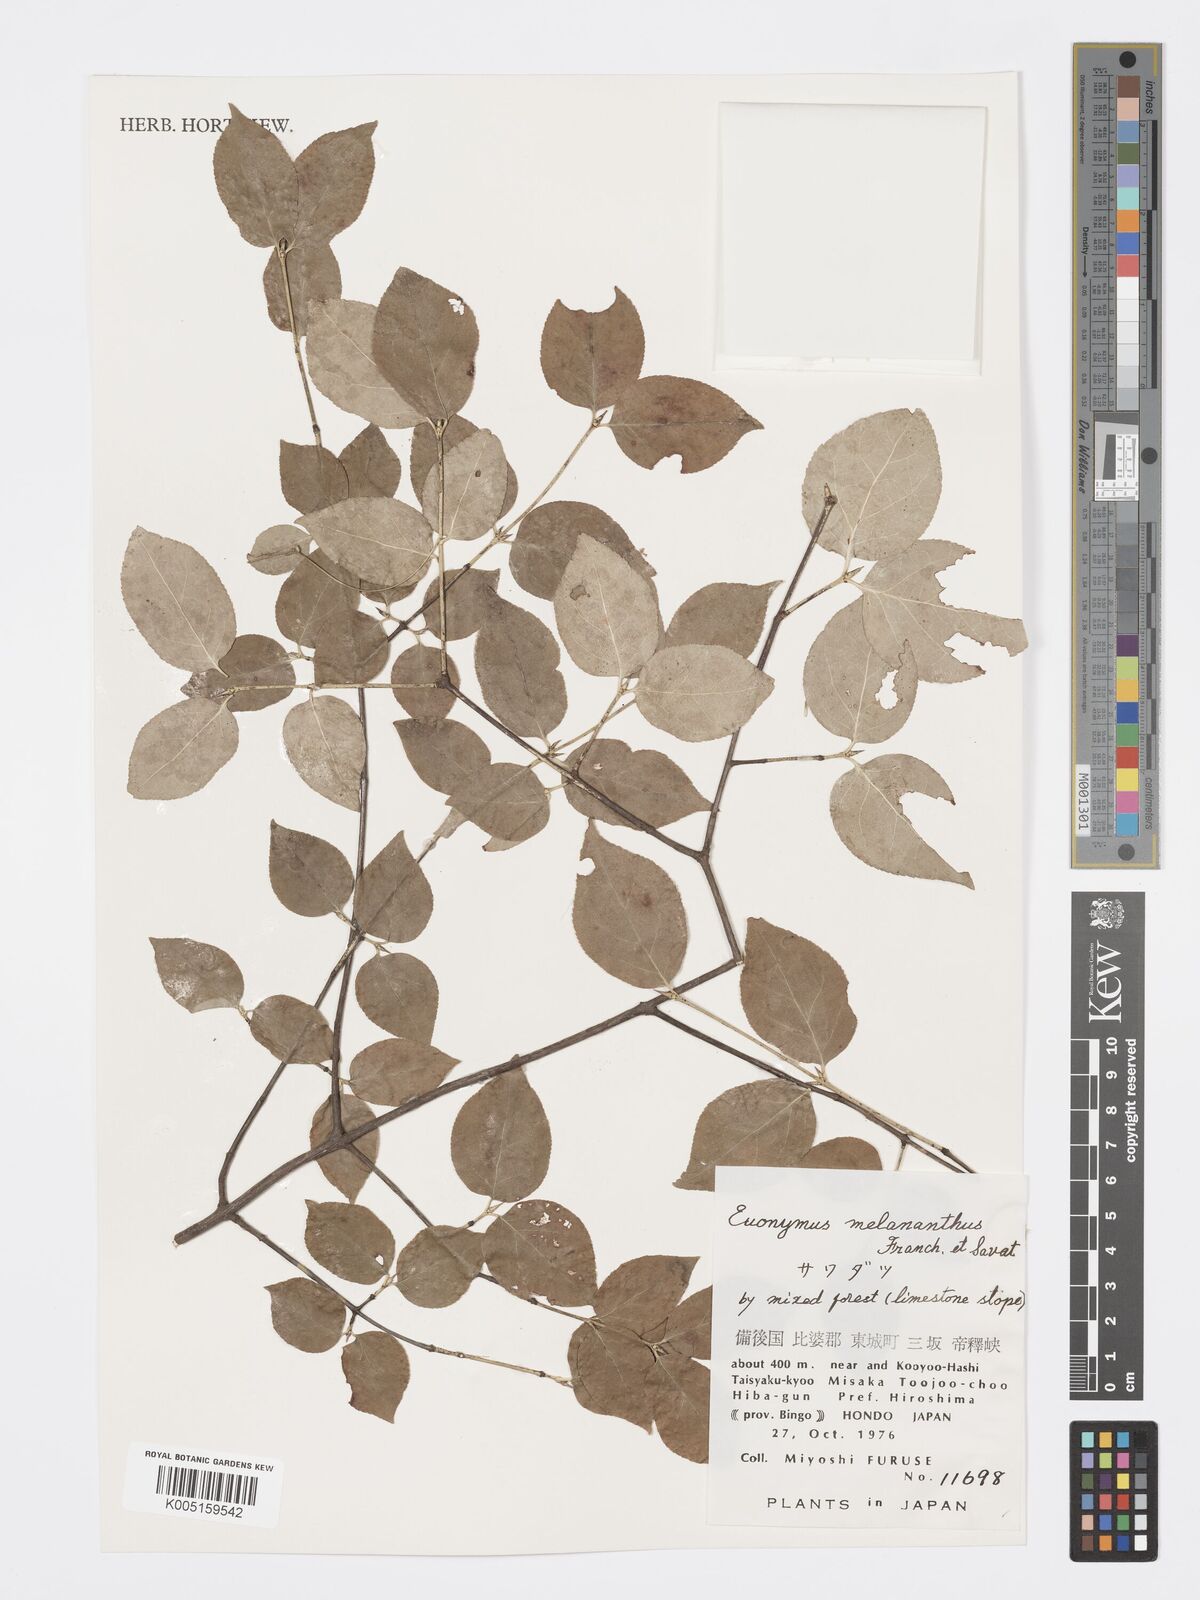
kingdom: Plantae
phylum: Tracheophyta
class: Magnoliopsida
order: Celastrales
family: Celastraceae
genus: Euonymus
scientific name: Euonymus melananthus
